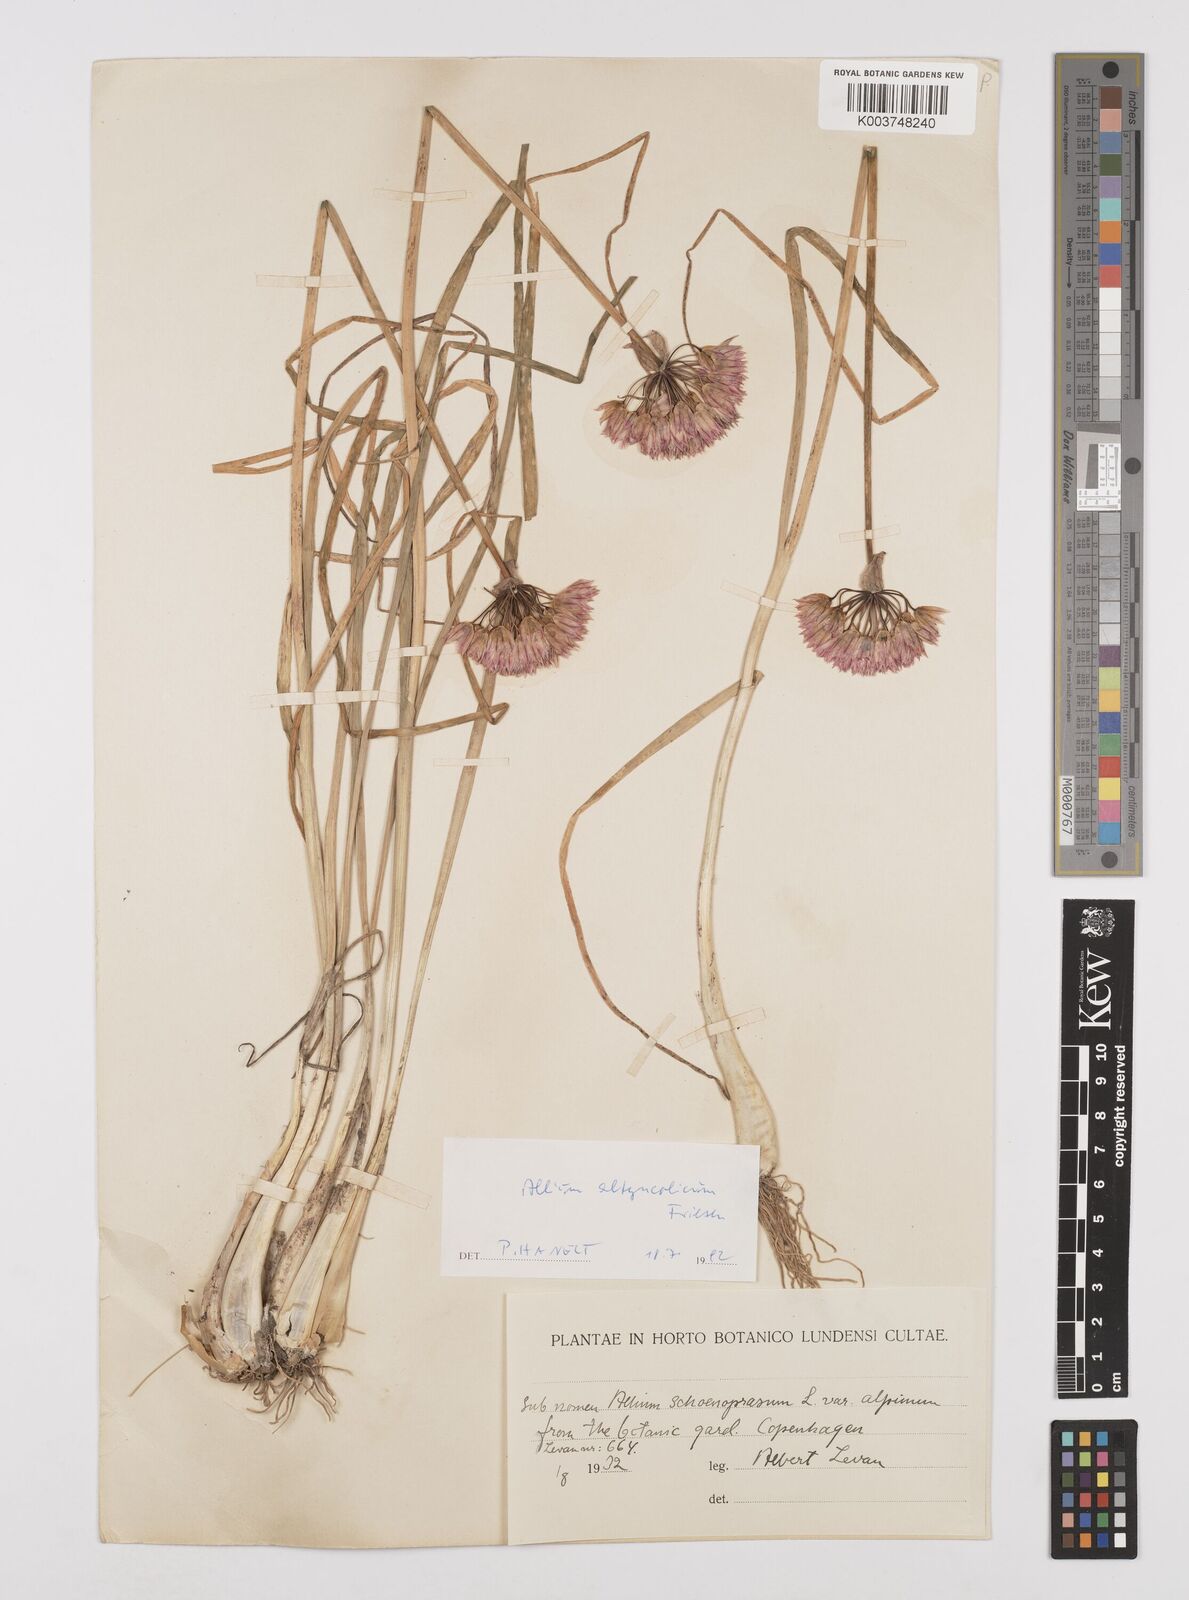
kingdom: Plantae
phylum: Tracheophyta
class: Liliopsida
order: Asparagales
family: Amaryllidaceae
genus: Allium
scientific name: Allium altyncolicum
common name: Altynkol chive
